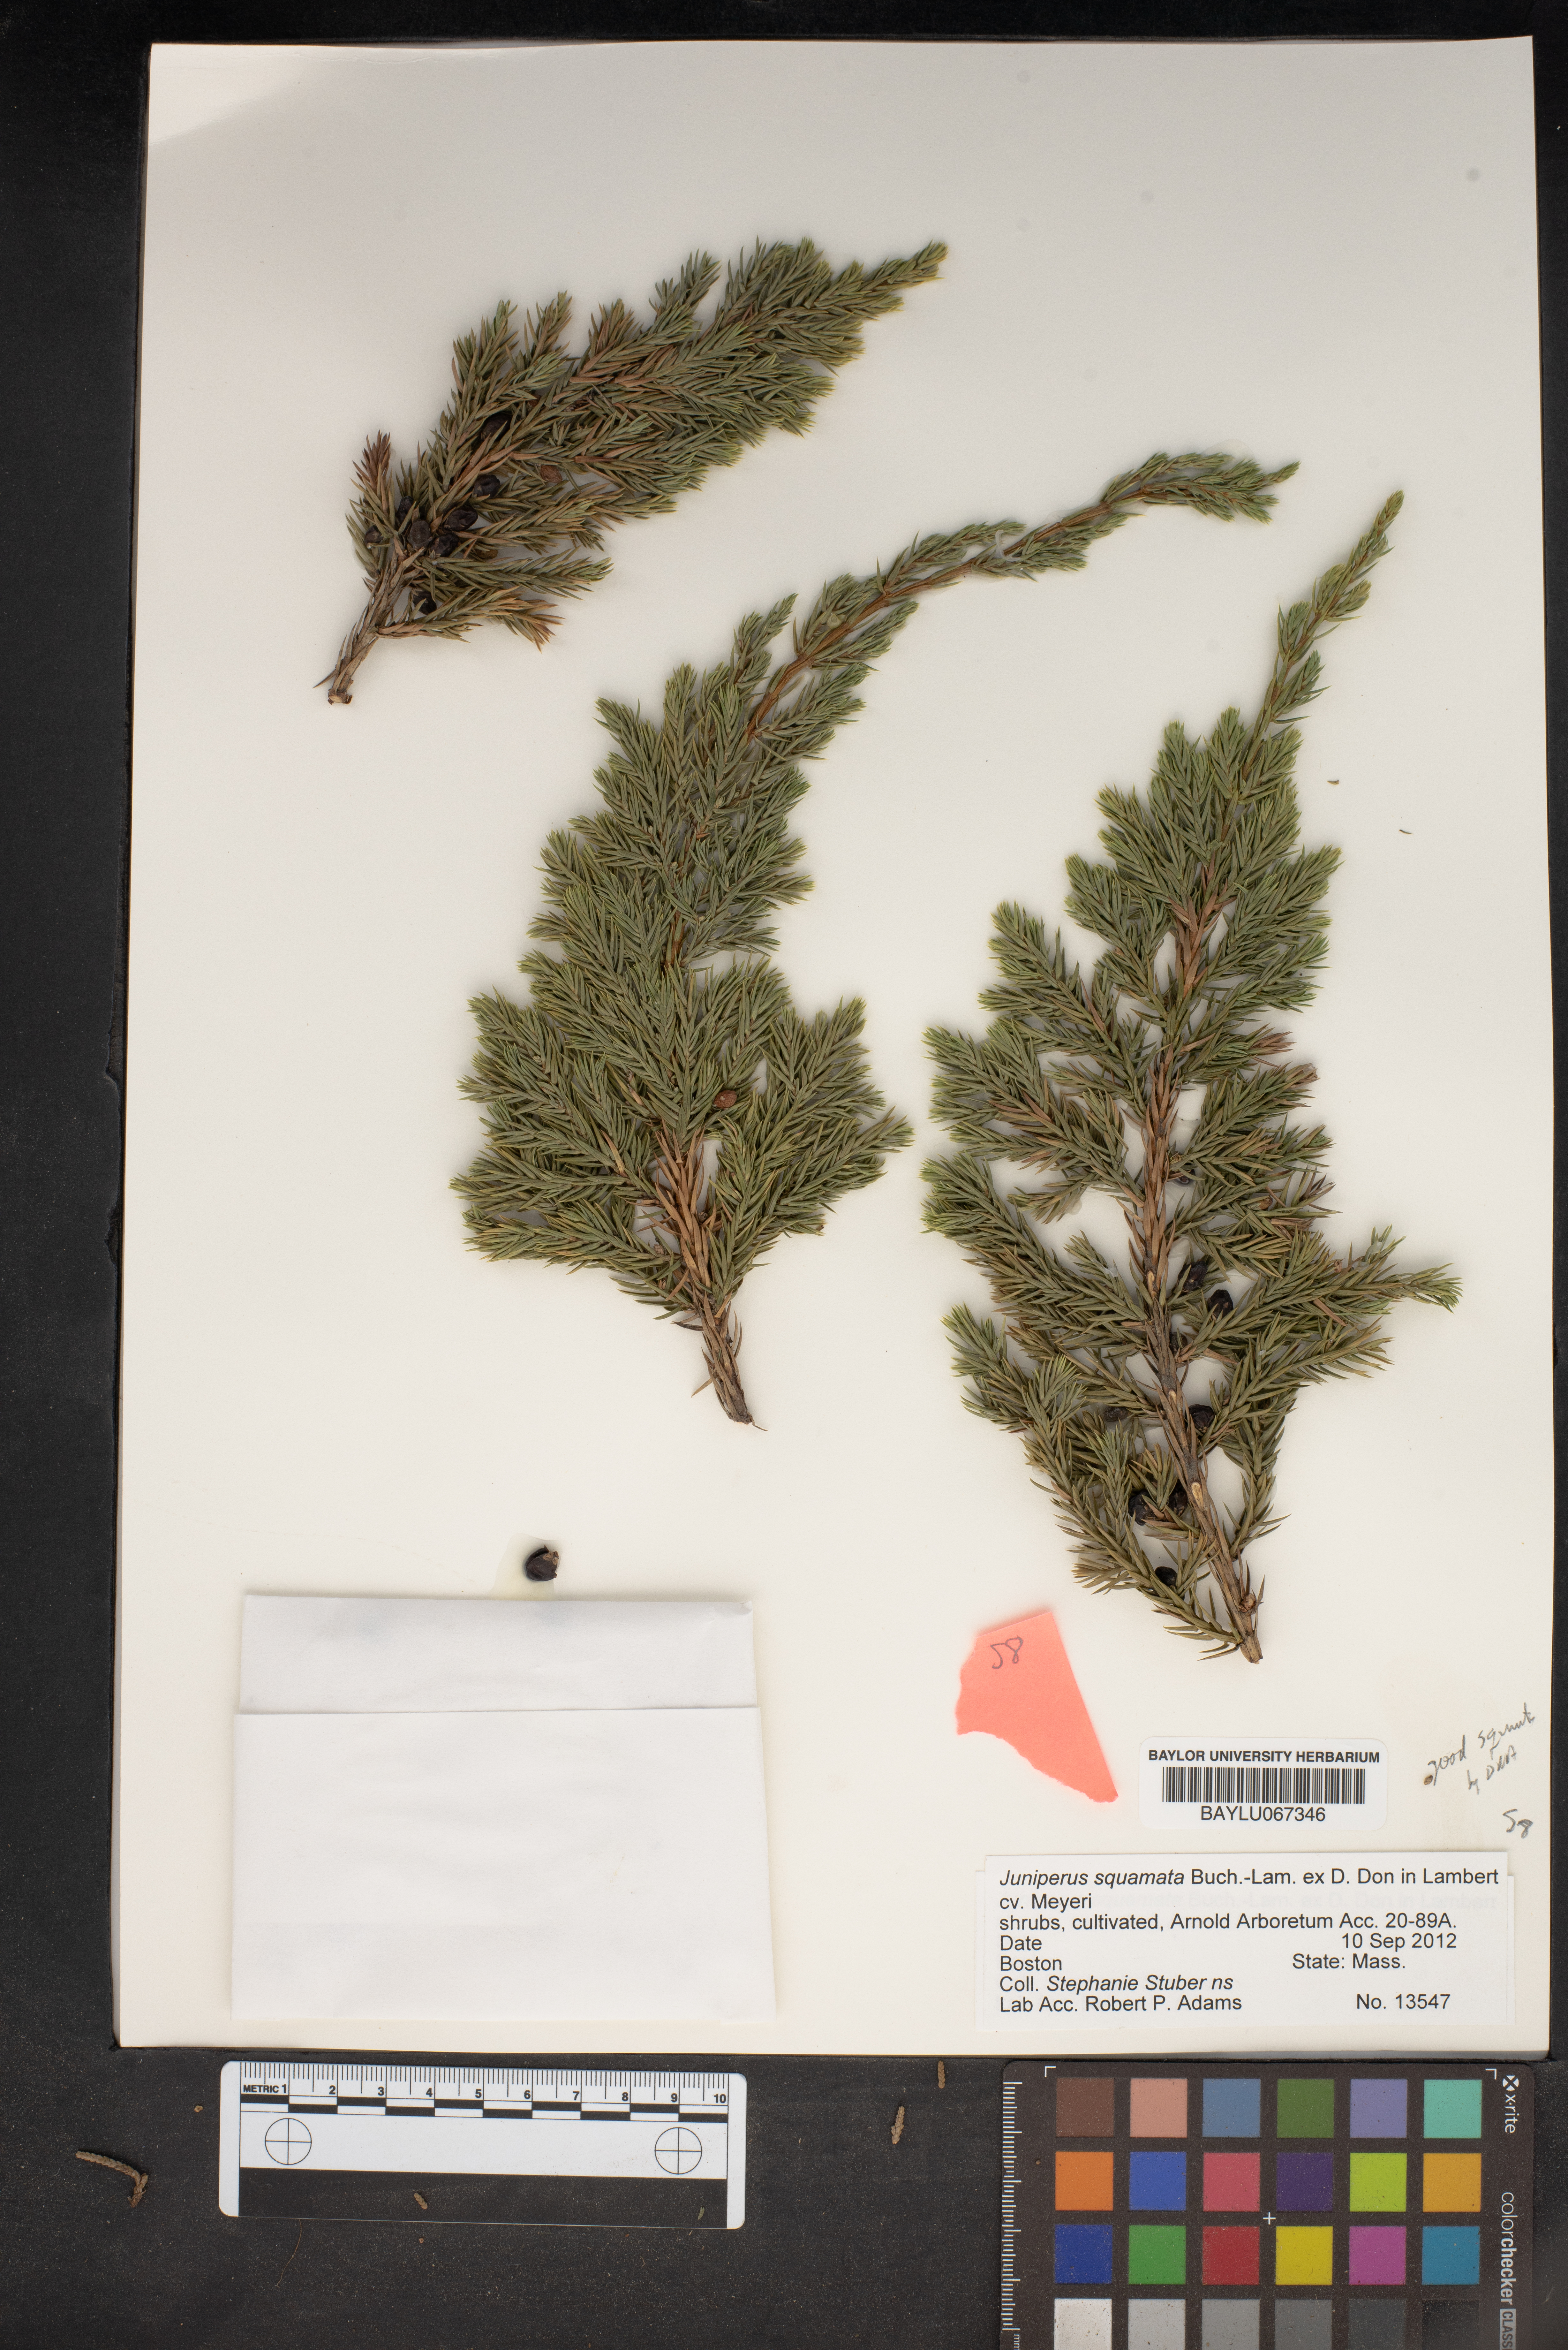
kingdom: Plantae
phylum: Tracheophyta
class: Pinopsida
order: Pinales
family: Cupressaceae
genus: Juniperus
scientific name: Juniperus squamata
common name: Flaky juniper
